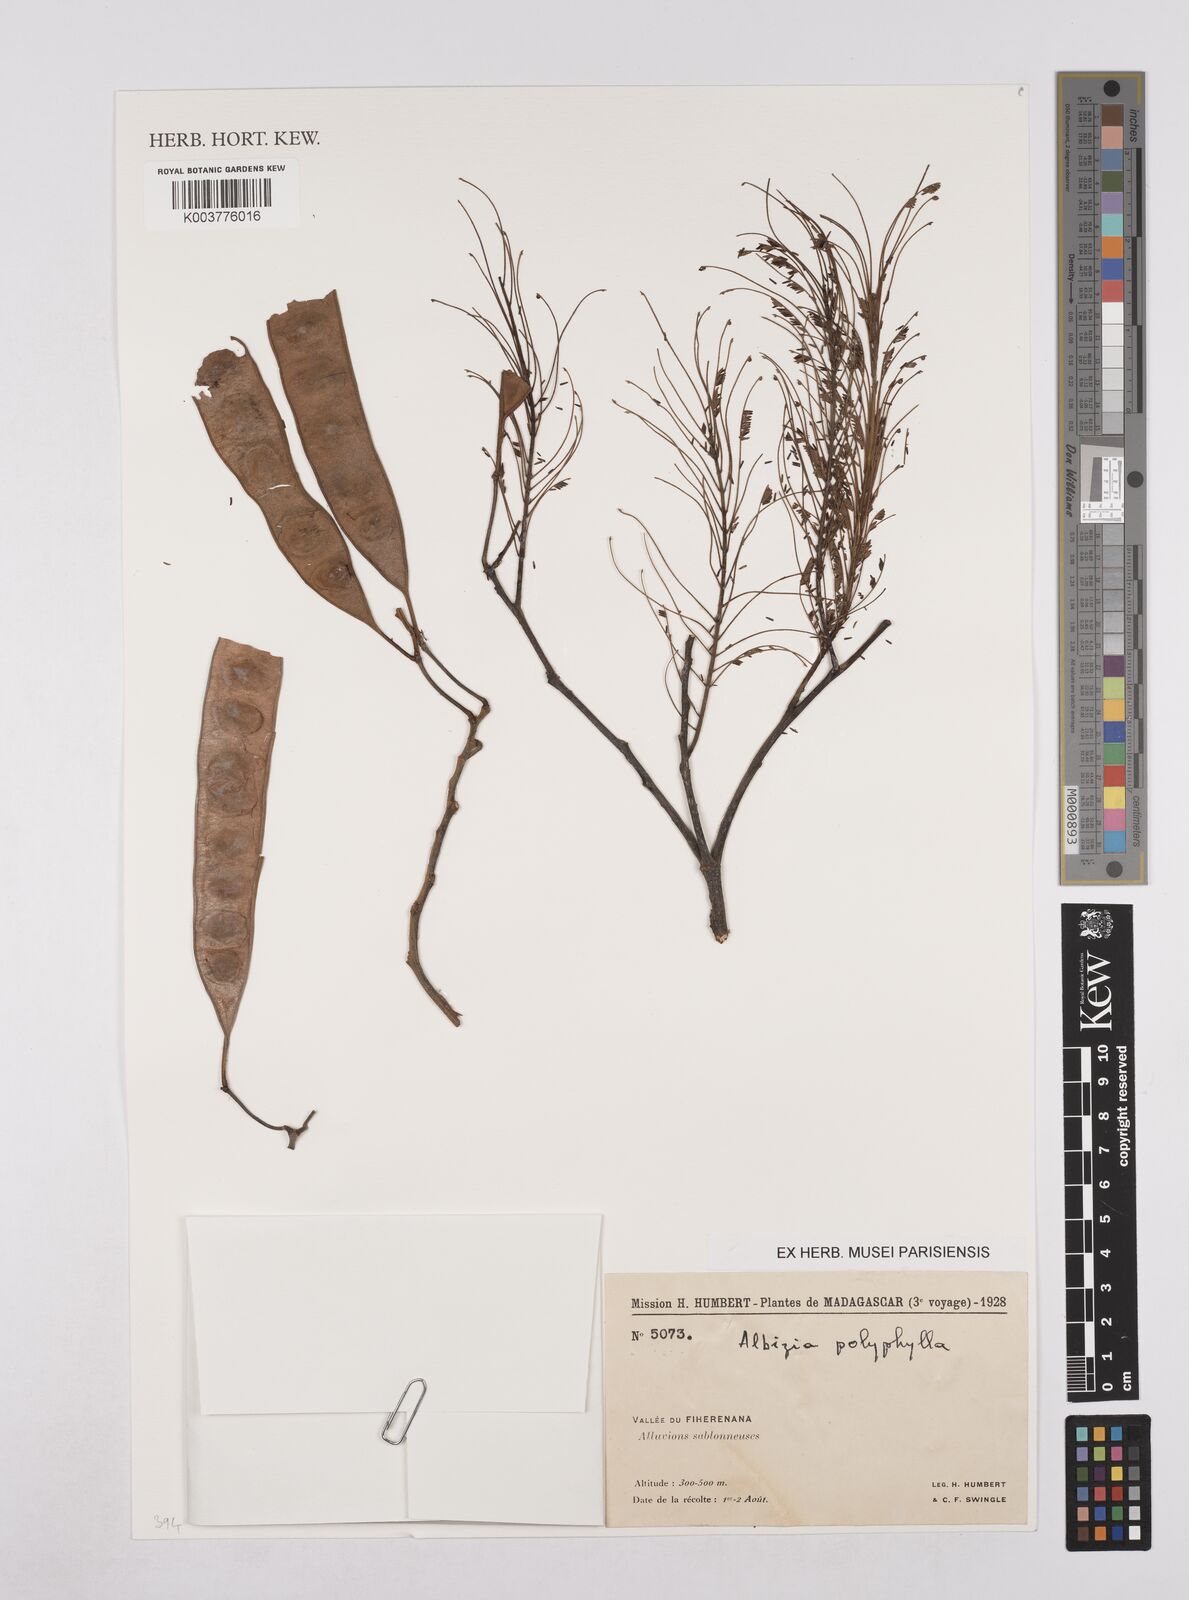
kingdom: Plantae
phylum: Tracheophyta
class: Magnoliopsida
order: Fabales
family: Fabaceae
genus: Albizia
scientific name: Albizia polyphylla
